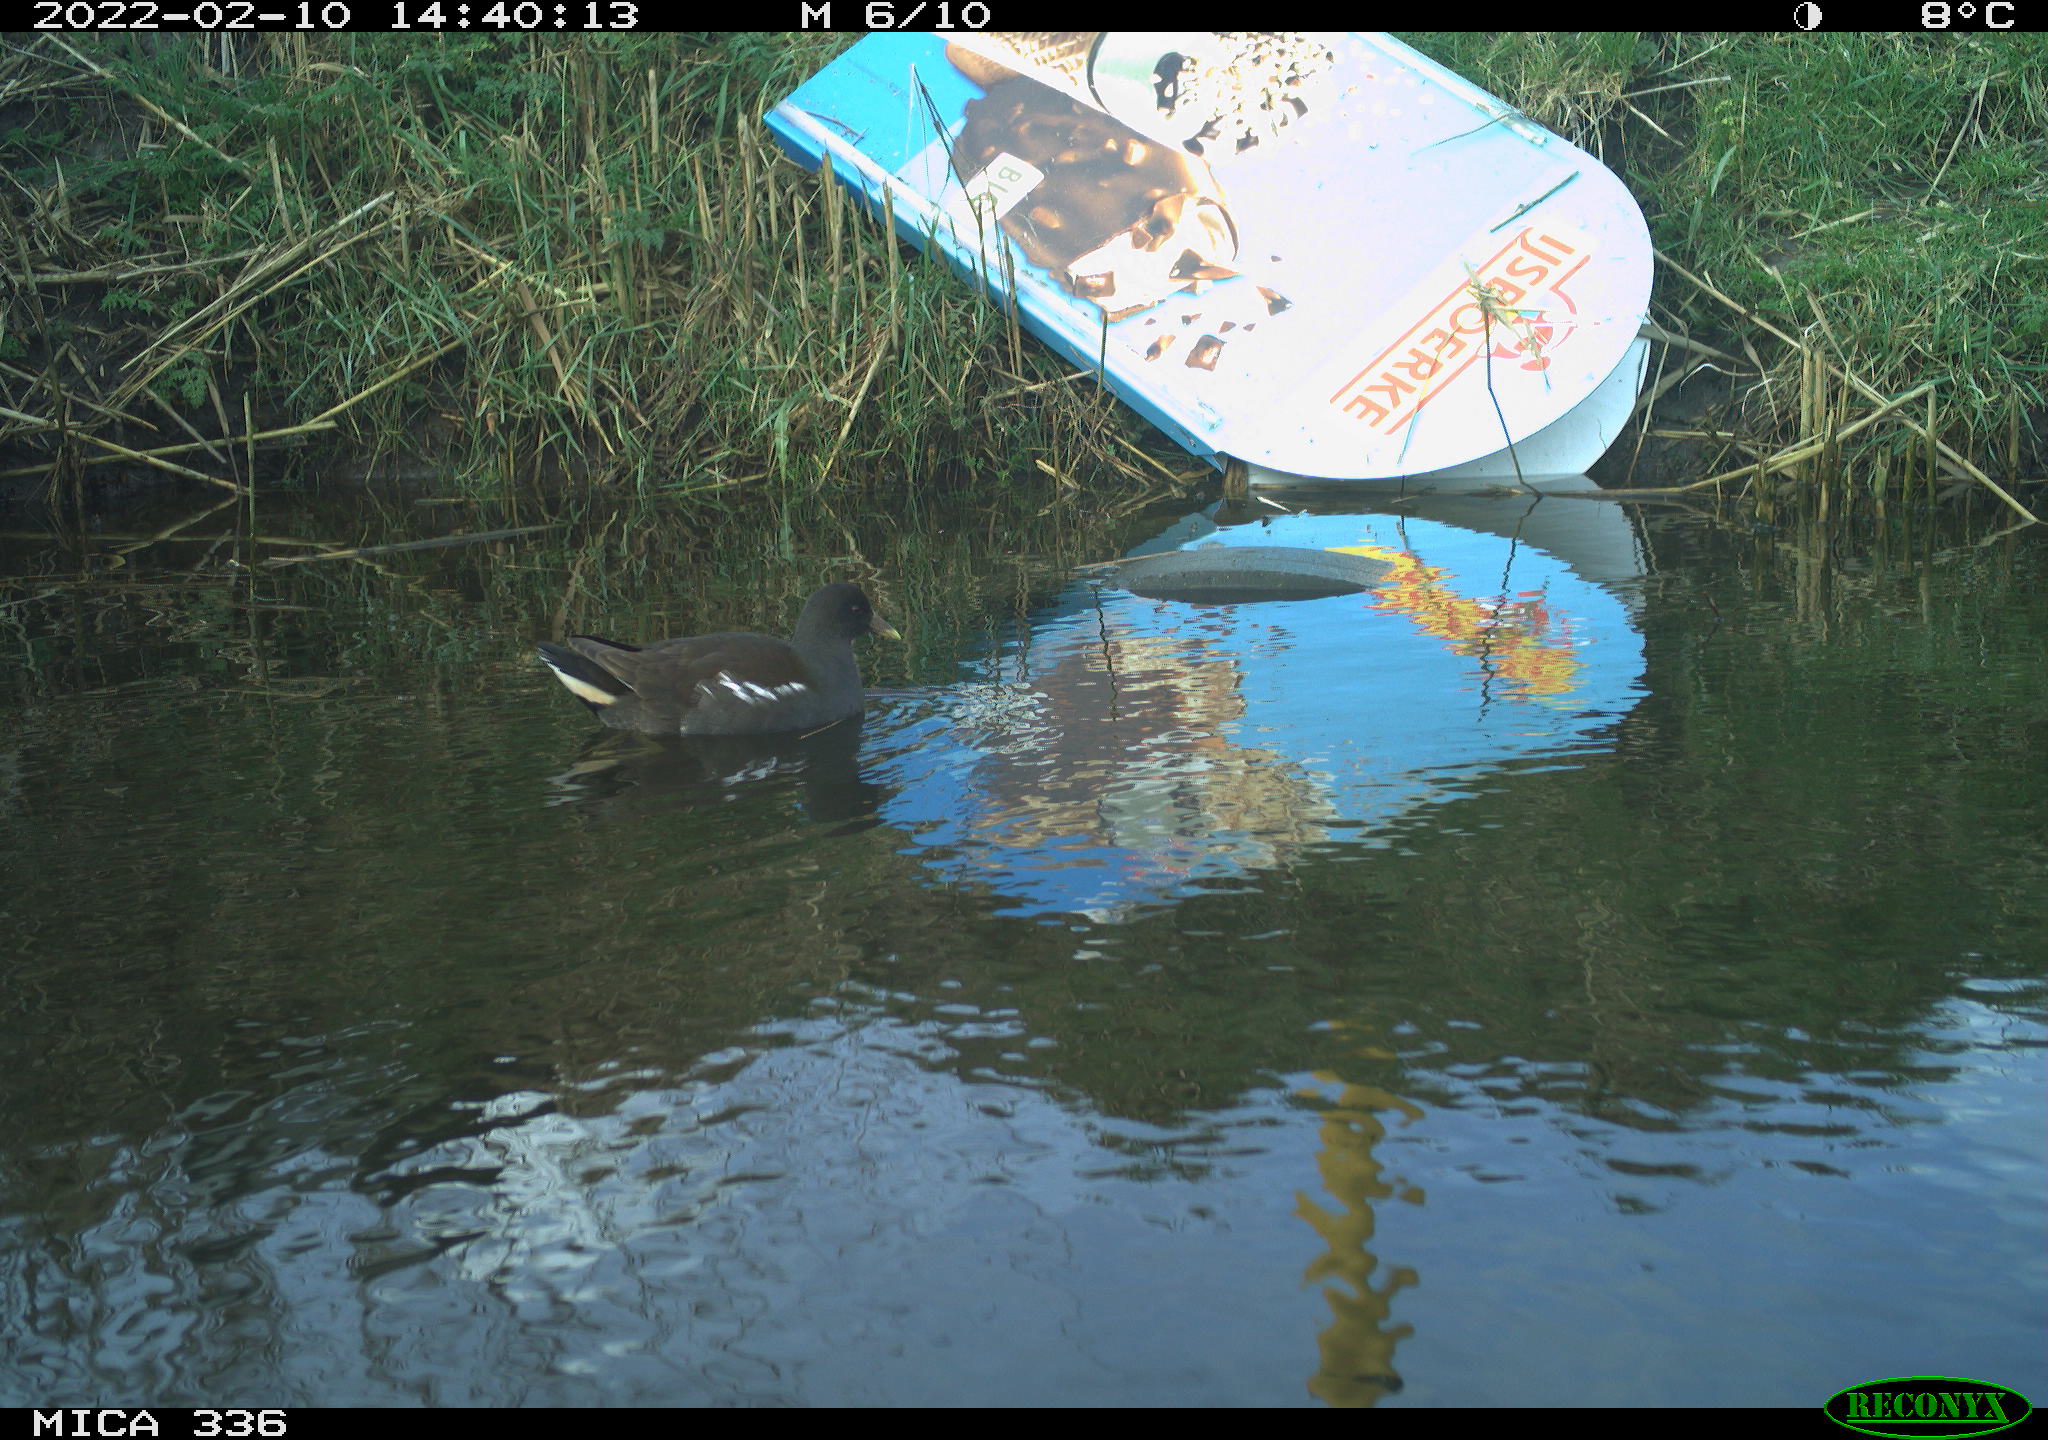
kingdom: Animalia
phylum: Chordata
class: Aves
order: Gruiformes
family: Rallidae
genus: Gallinula
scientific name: Gallinula chloropus
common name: Common moorhen
